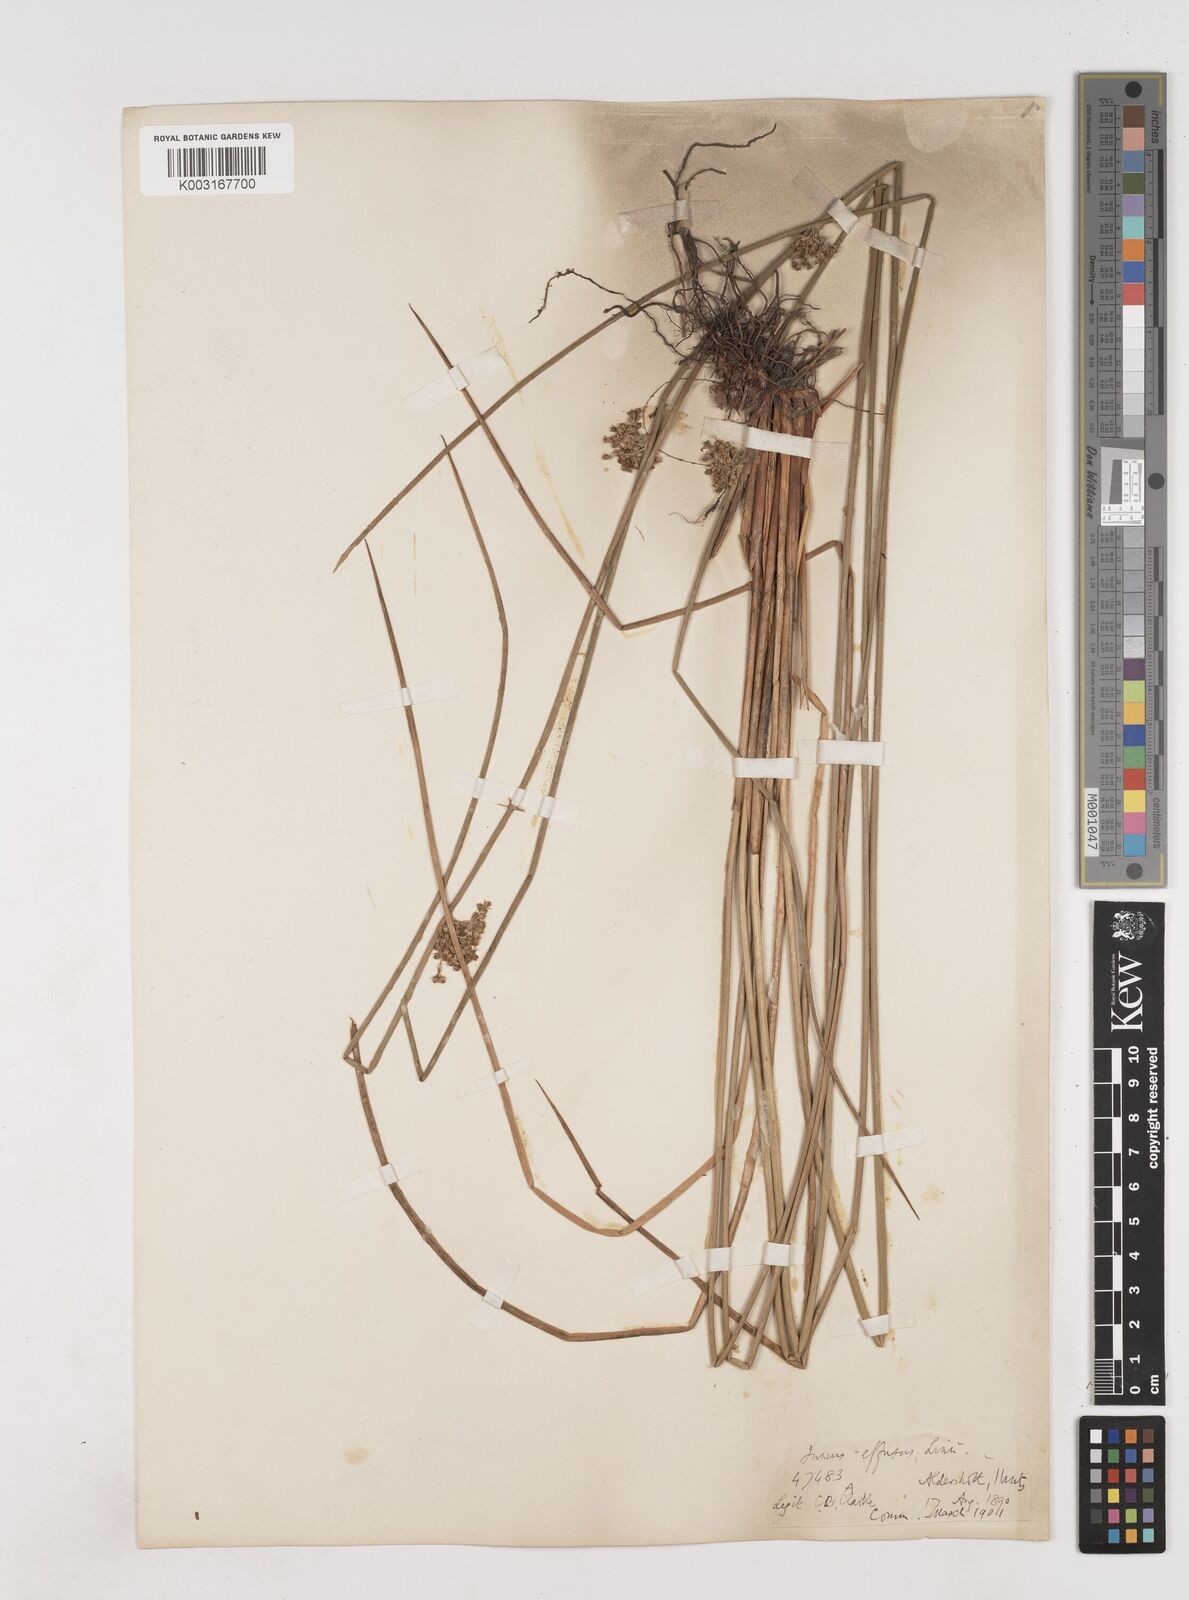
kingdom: Plantae
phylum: Tracheophyta
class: Liliopsida
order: Poales
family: Juncaceae
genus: Juncus
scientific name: Juncus effusus
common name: Soft rush
